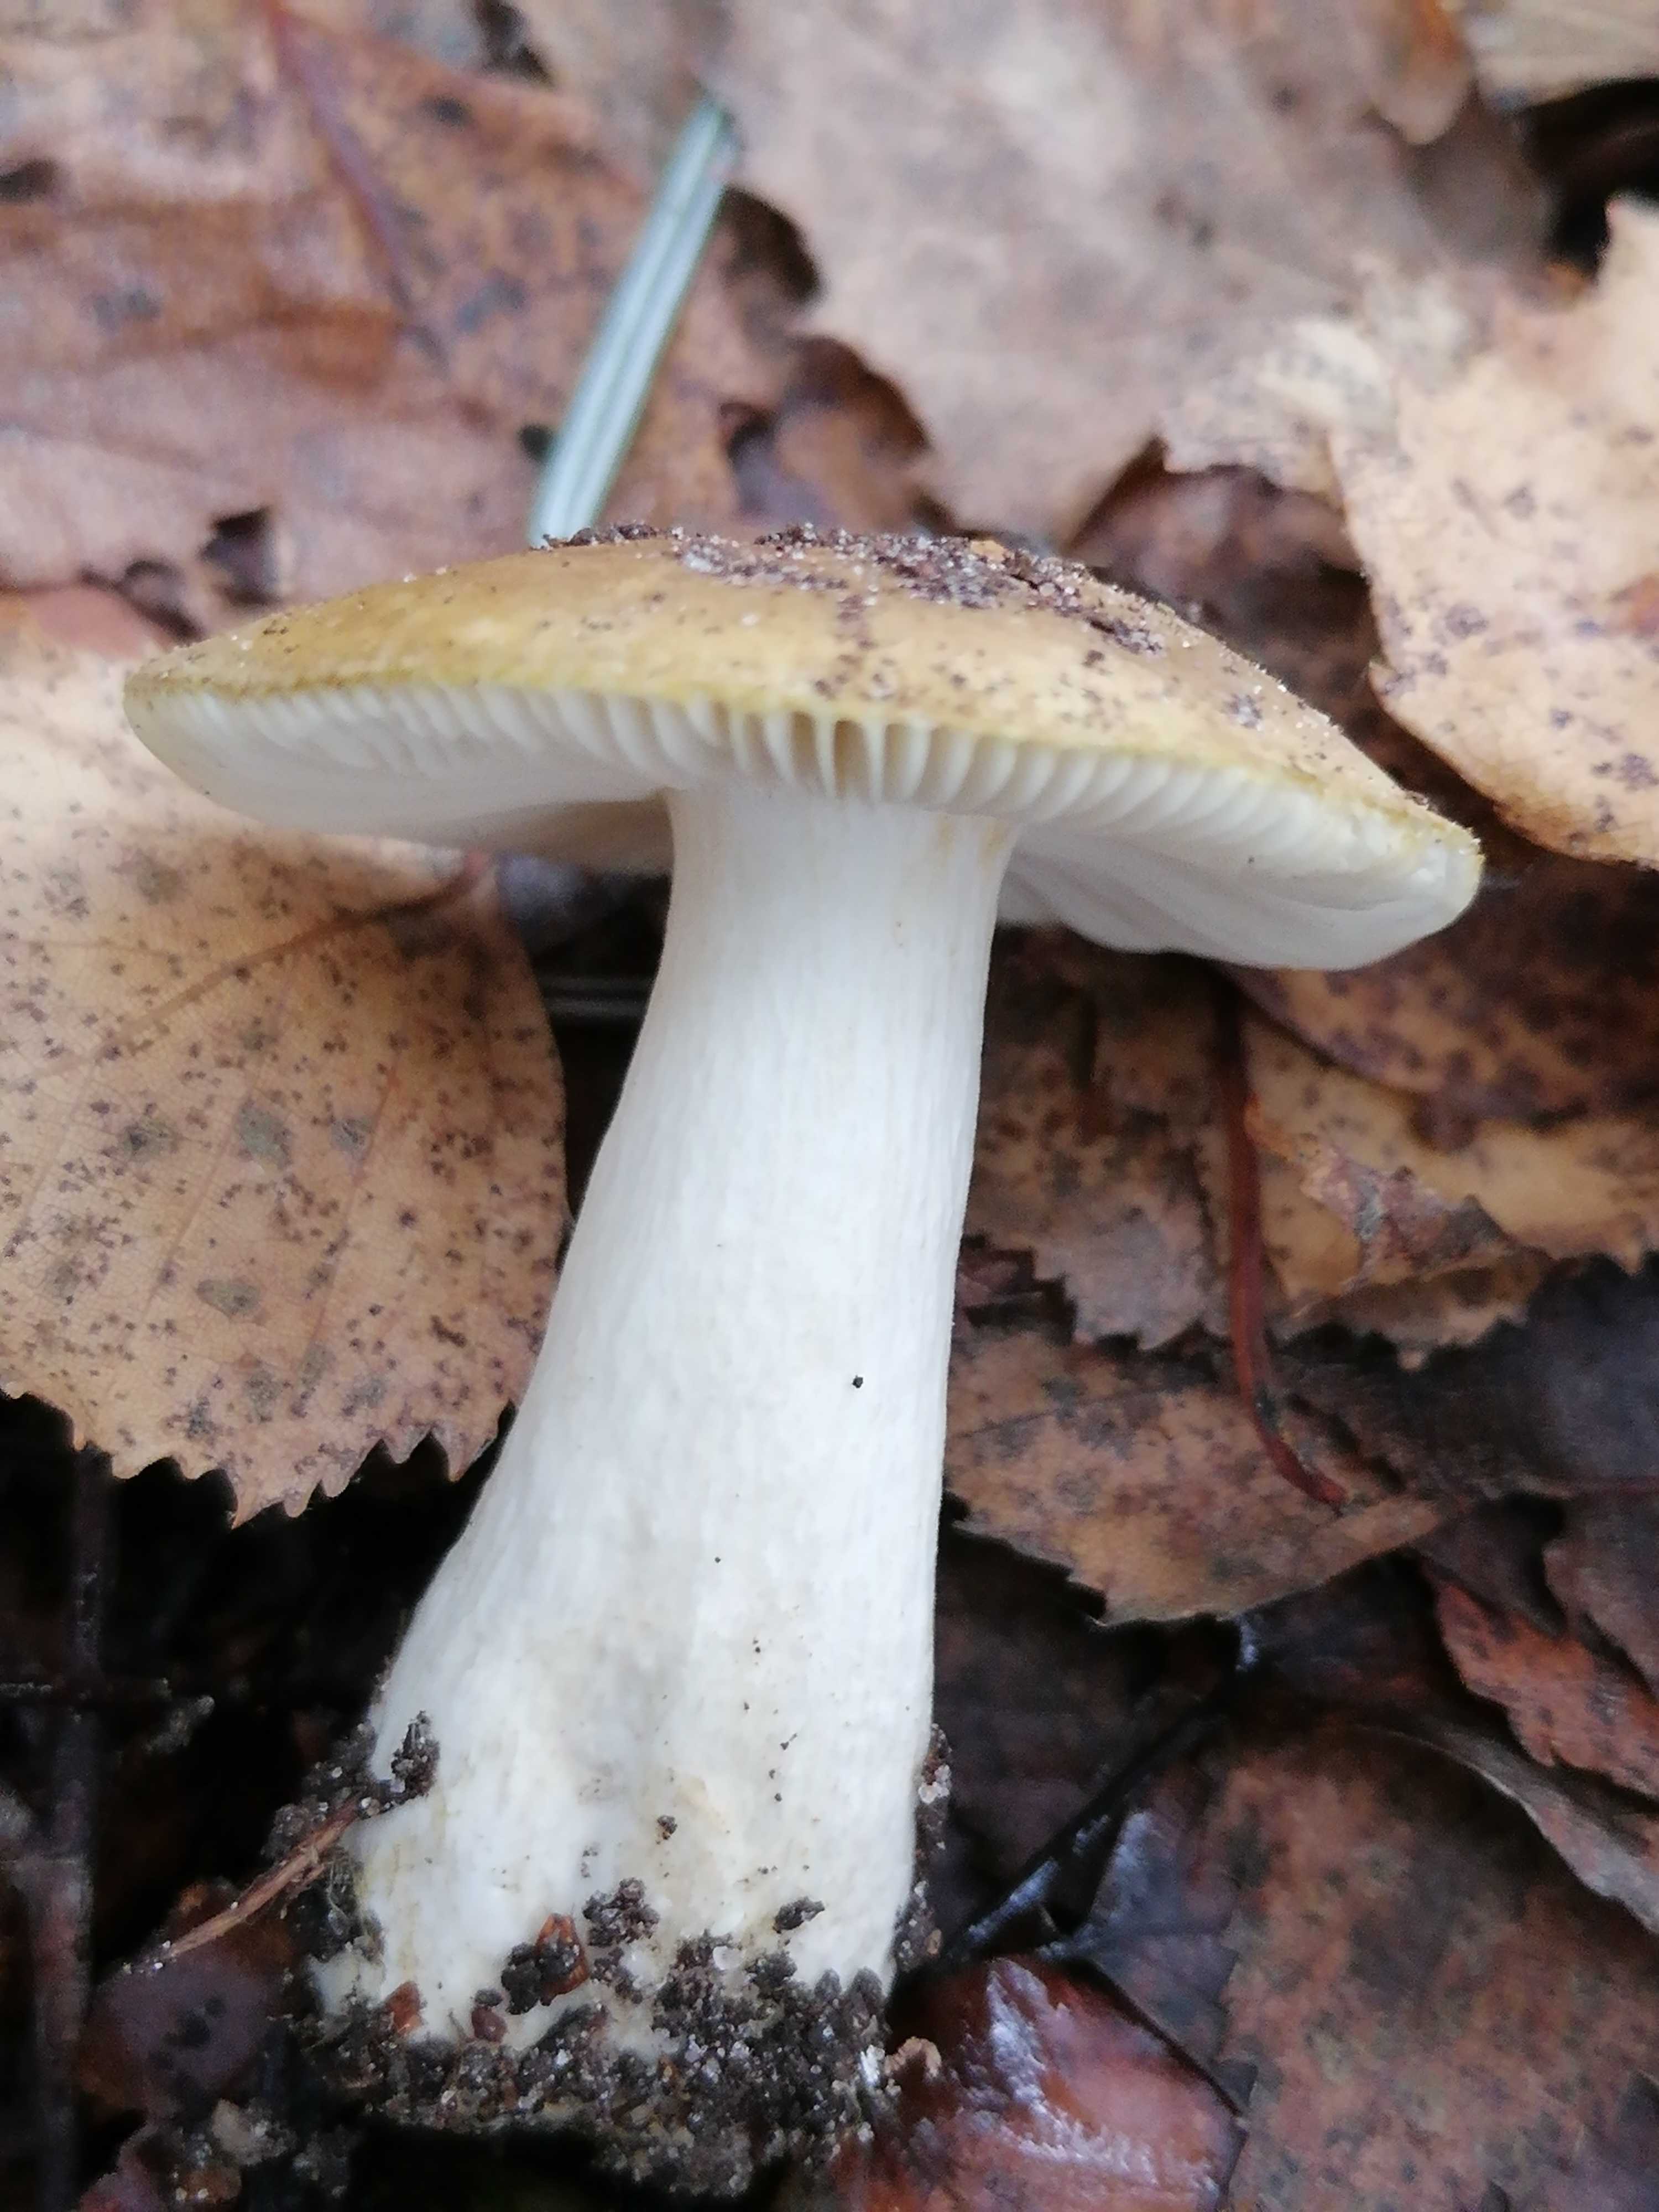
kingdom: Fungi
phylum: Basidiomycota
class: Agaricomycetes
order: Russulales
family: Russulaceae
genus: Russula
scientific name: Russula ochroleuca
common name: okkergul skørhat
